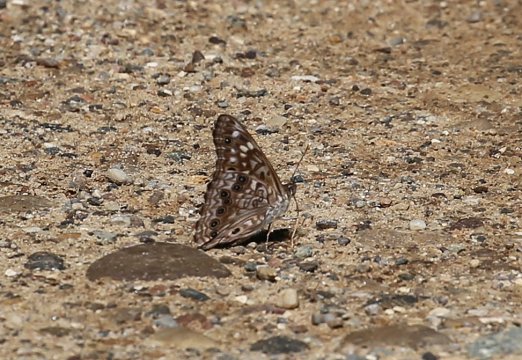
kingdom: Animalia
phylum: Arthropoda
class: Insecta
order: Lepidoptera
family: Nymphalidae
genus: Asterocampa
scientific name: Asterocampa celtis
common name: Hackberry Emperor
